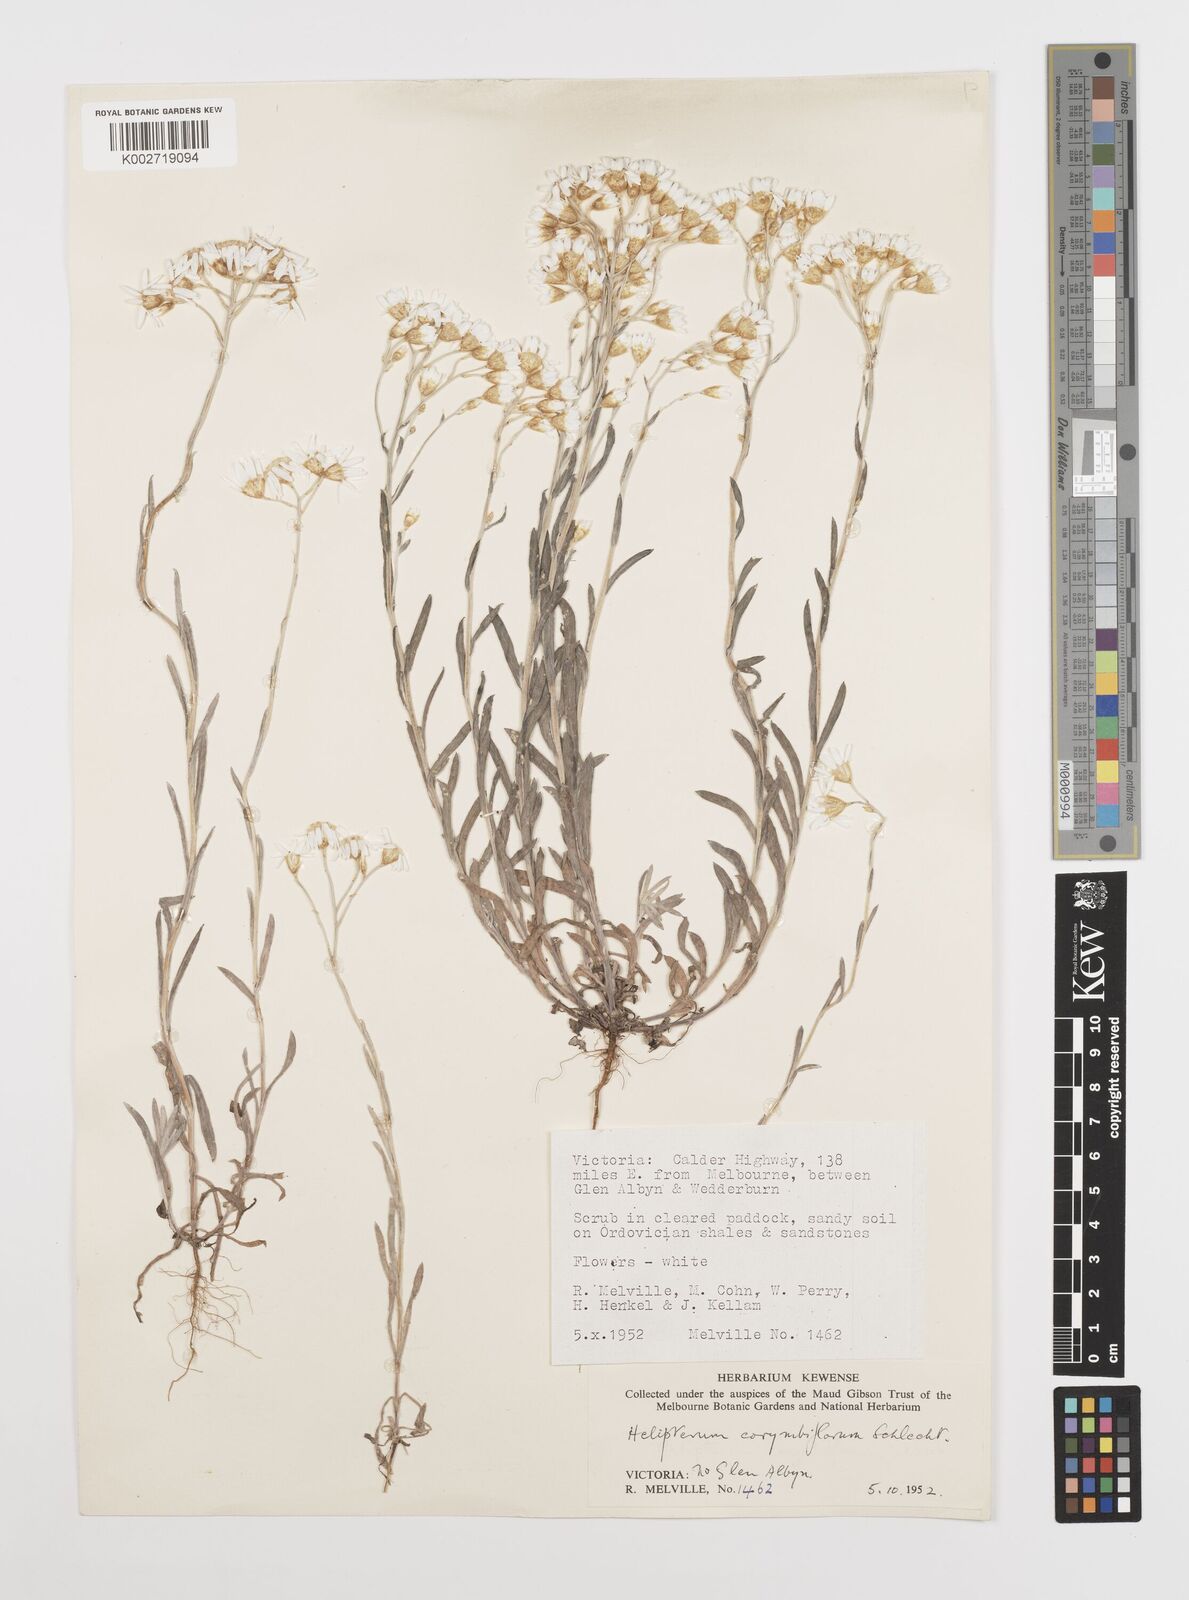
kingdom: Plantae
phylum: Tracheophyta
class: Magnoliopsida
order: Asterales
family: Asteraceae
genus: Rhodanthe
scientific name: Rhodanthe corymbiflora
